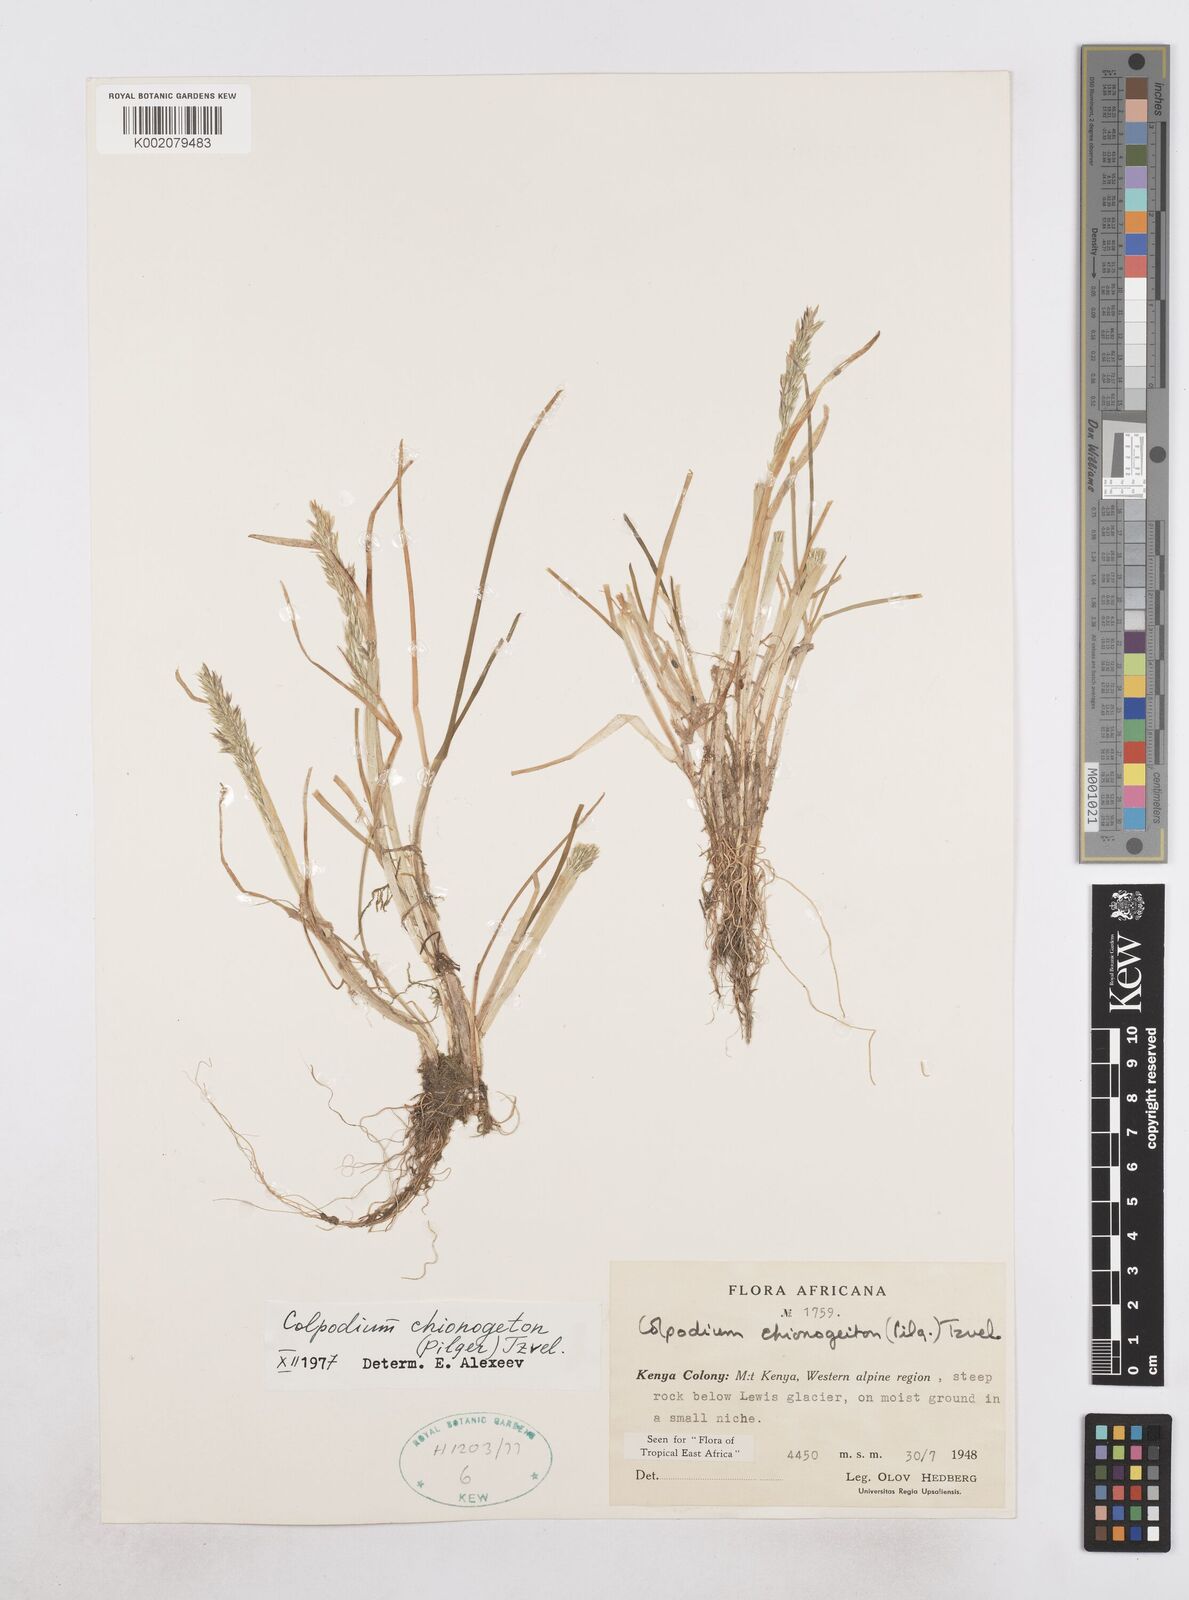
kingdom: Plantae
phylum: Tracheophyta
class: Liliopsida
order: Poales
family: Poaceae
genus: Colpodium
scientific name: Colpodium chionogeiton
